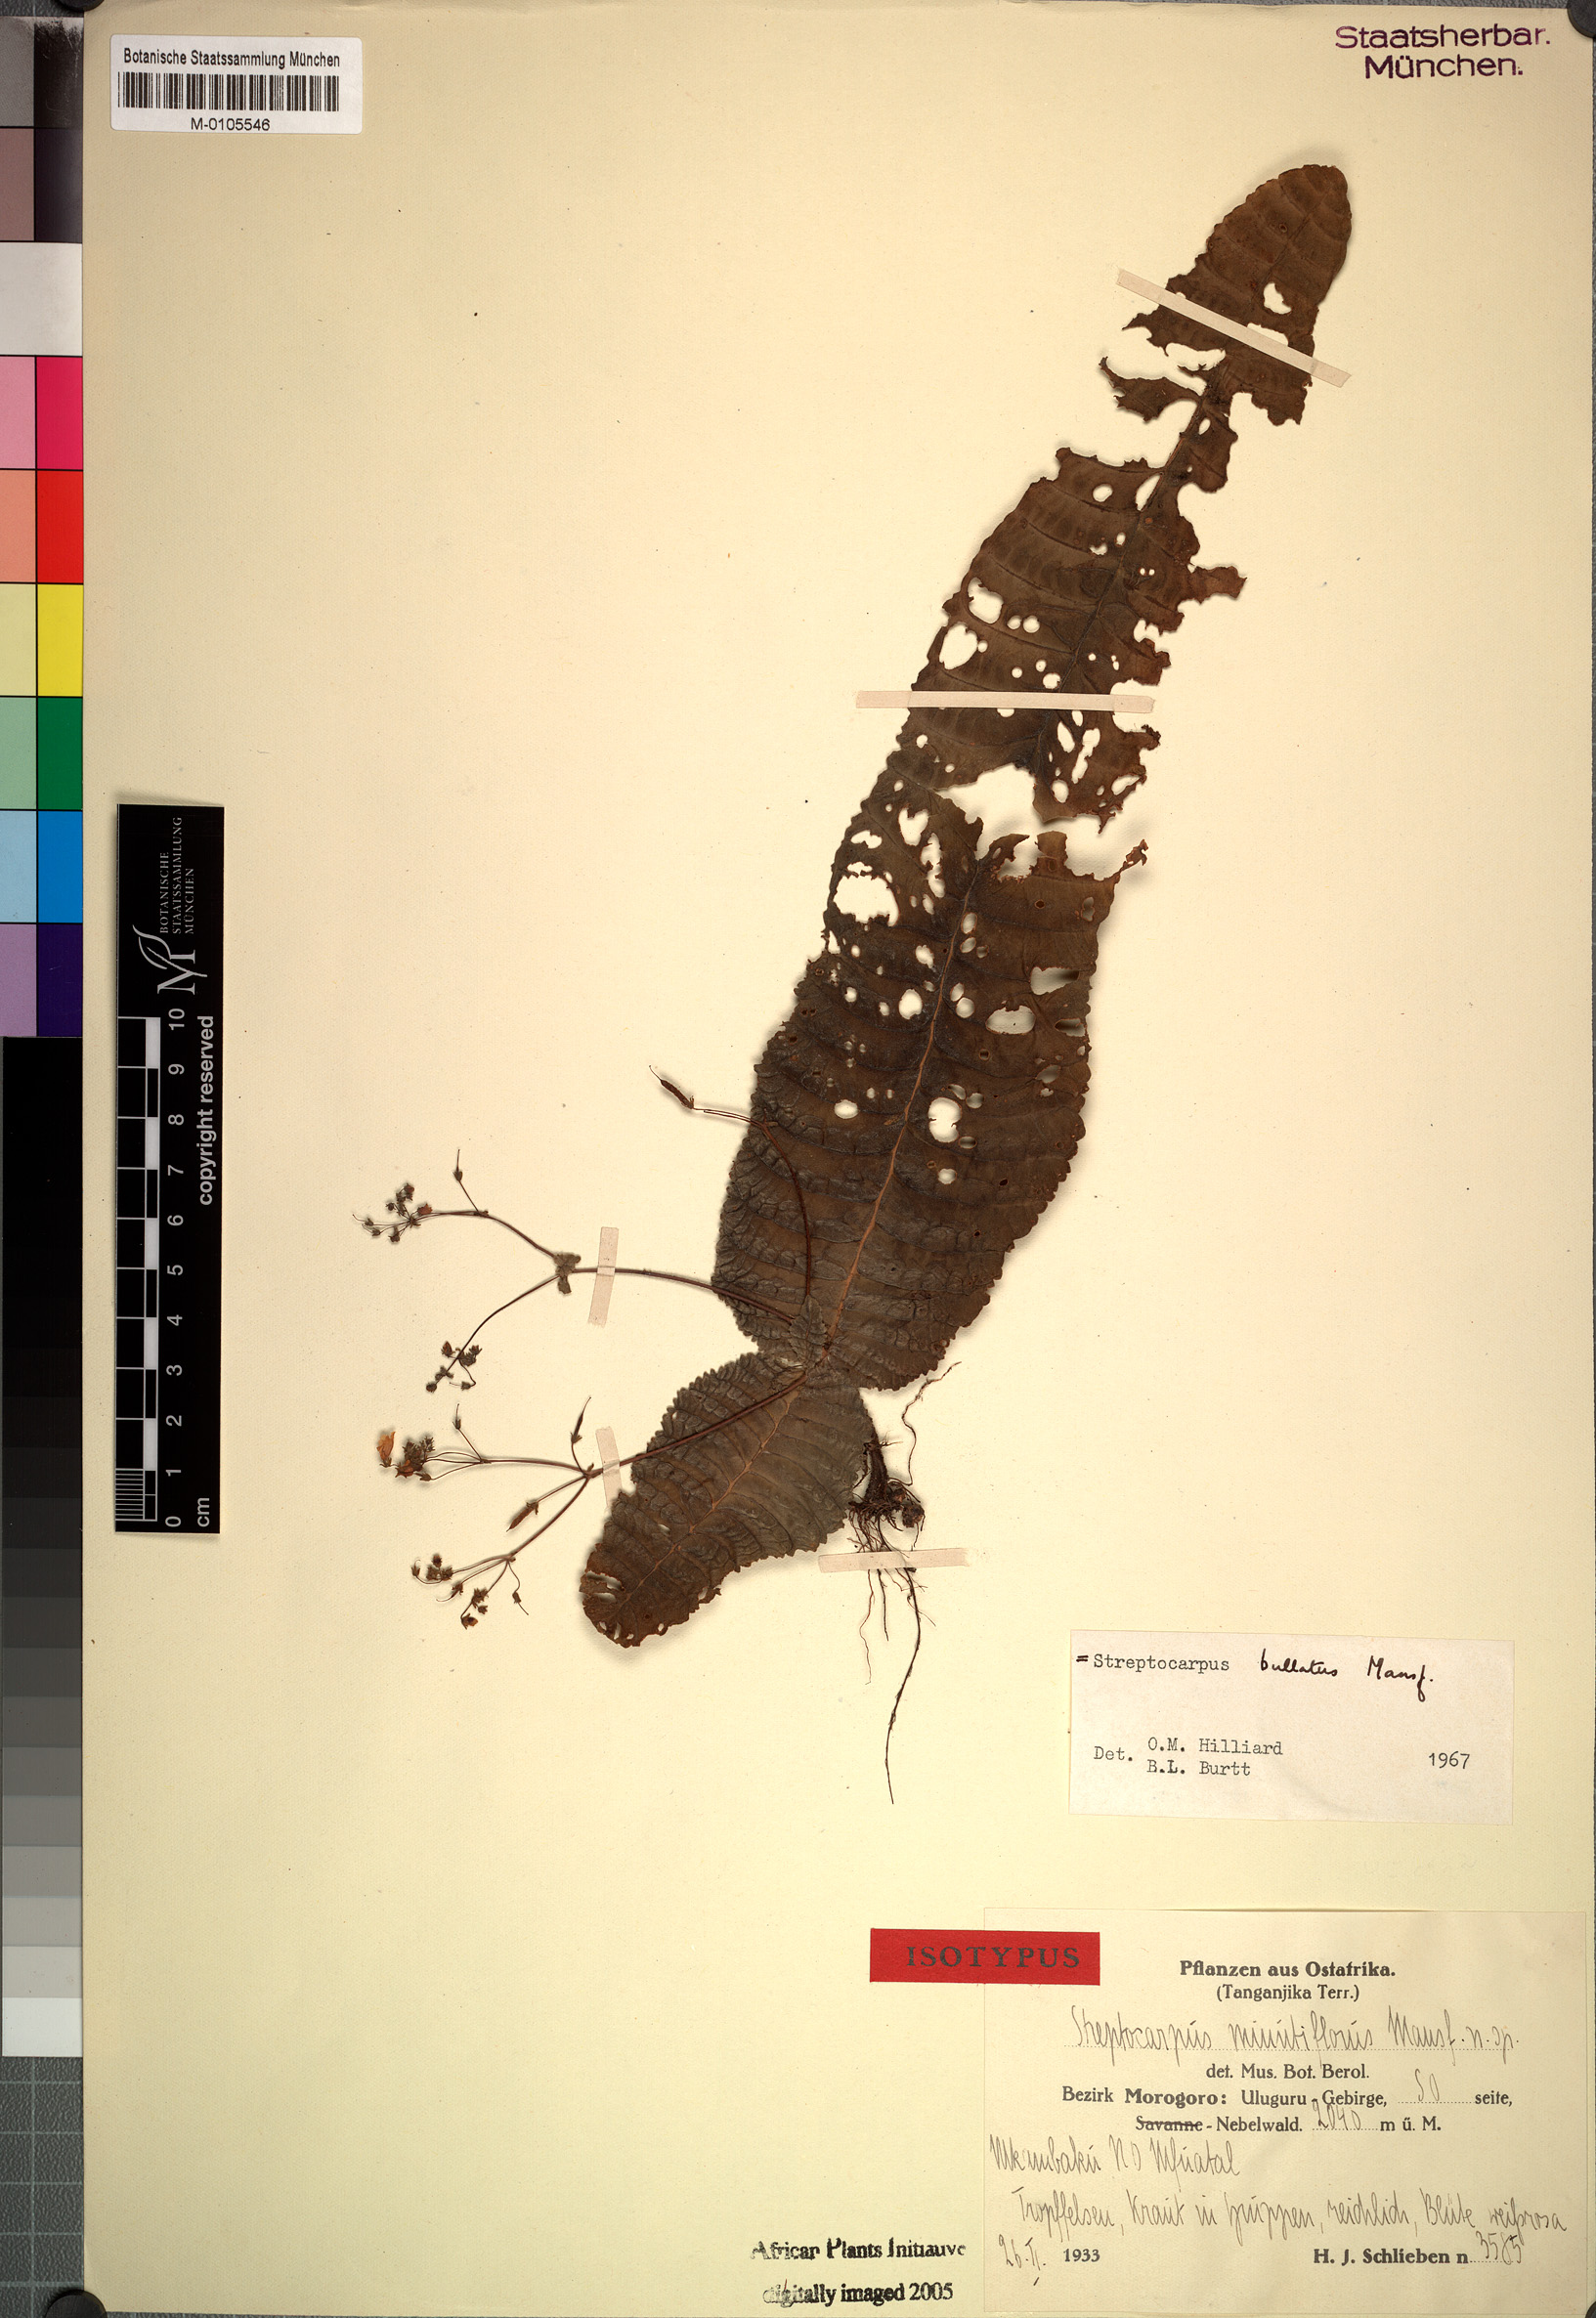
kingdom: Plantae
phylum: Tracheophyta
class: Magnoliopsida
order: Lamiales
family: Gesneriaceae
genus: Streptocarpus
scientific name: Streptocarpus bullatus
